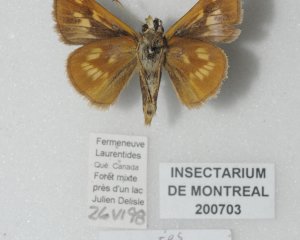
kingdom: Animalia
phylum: Arthropoda
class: Insecta
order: Lepidoptera
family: Hesperiidae
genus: Polites
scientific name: Polites
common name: Long Dash Skipper
